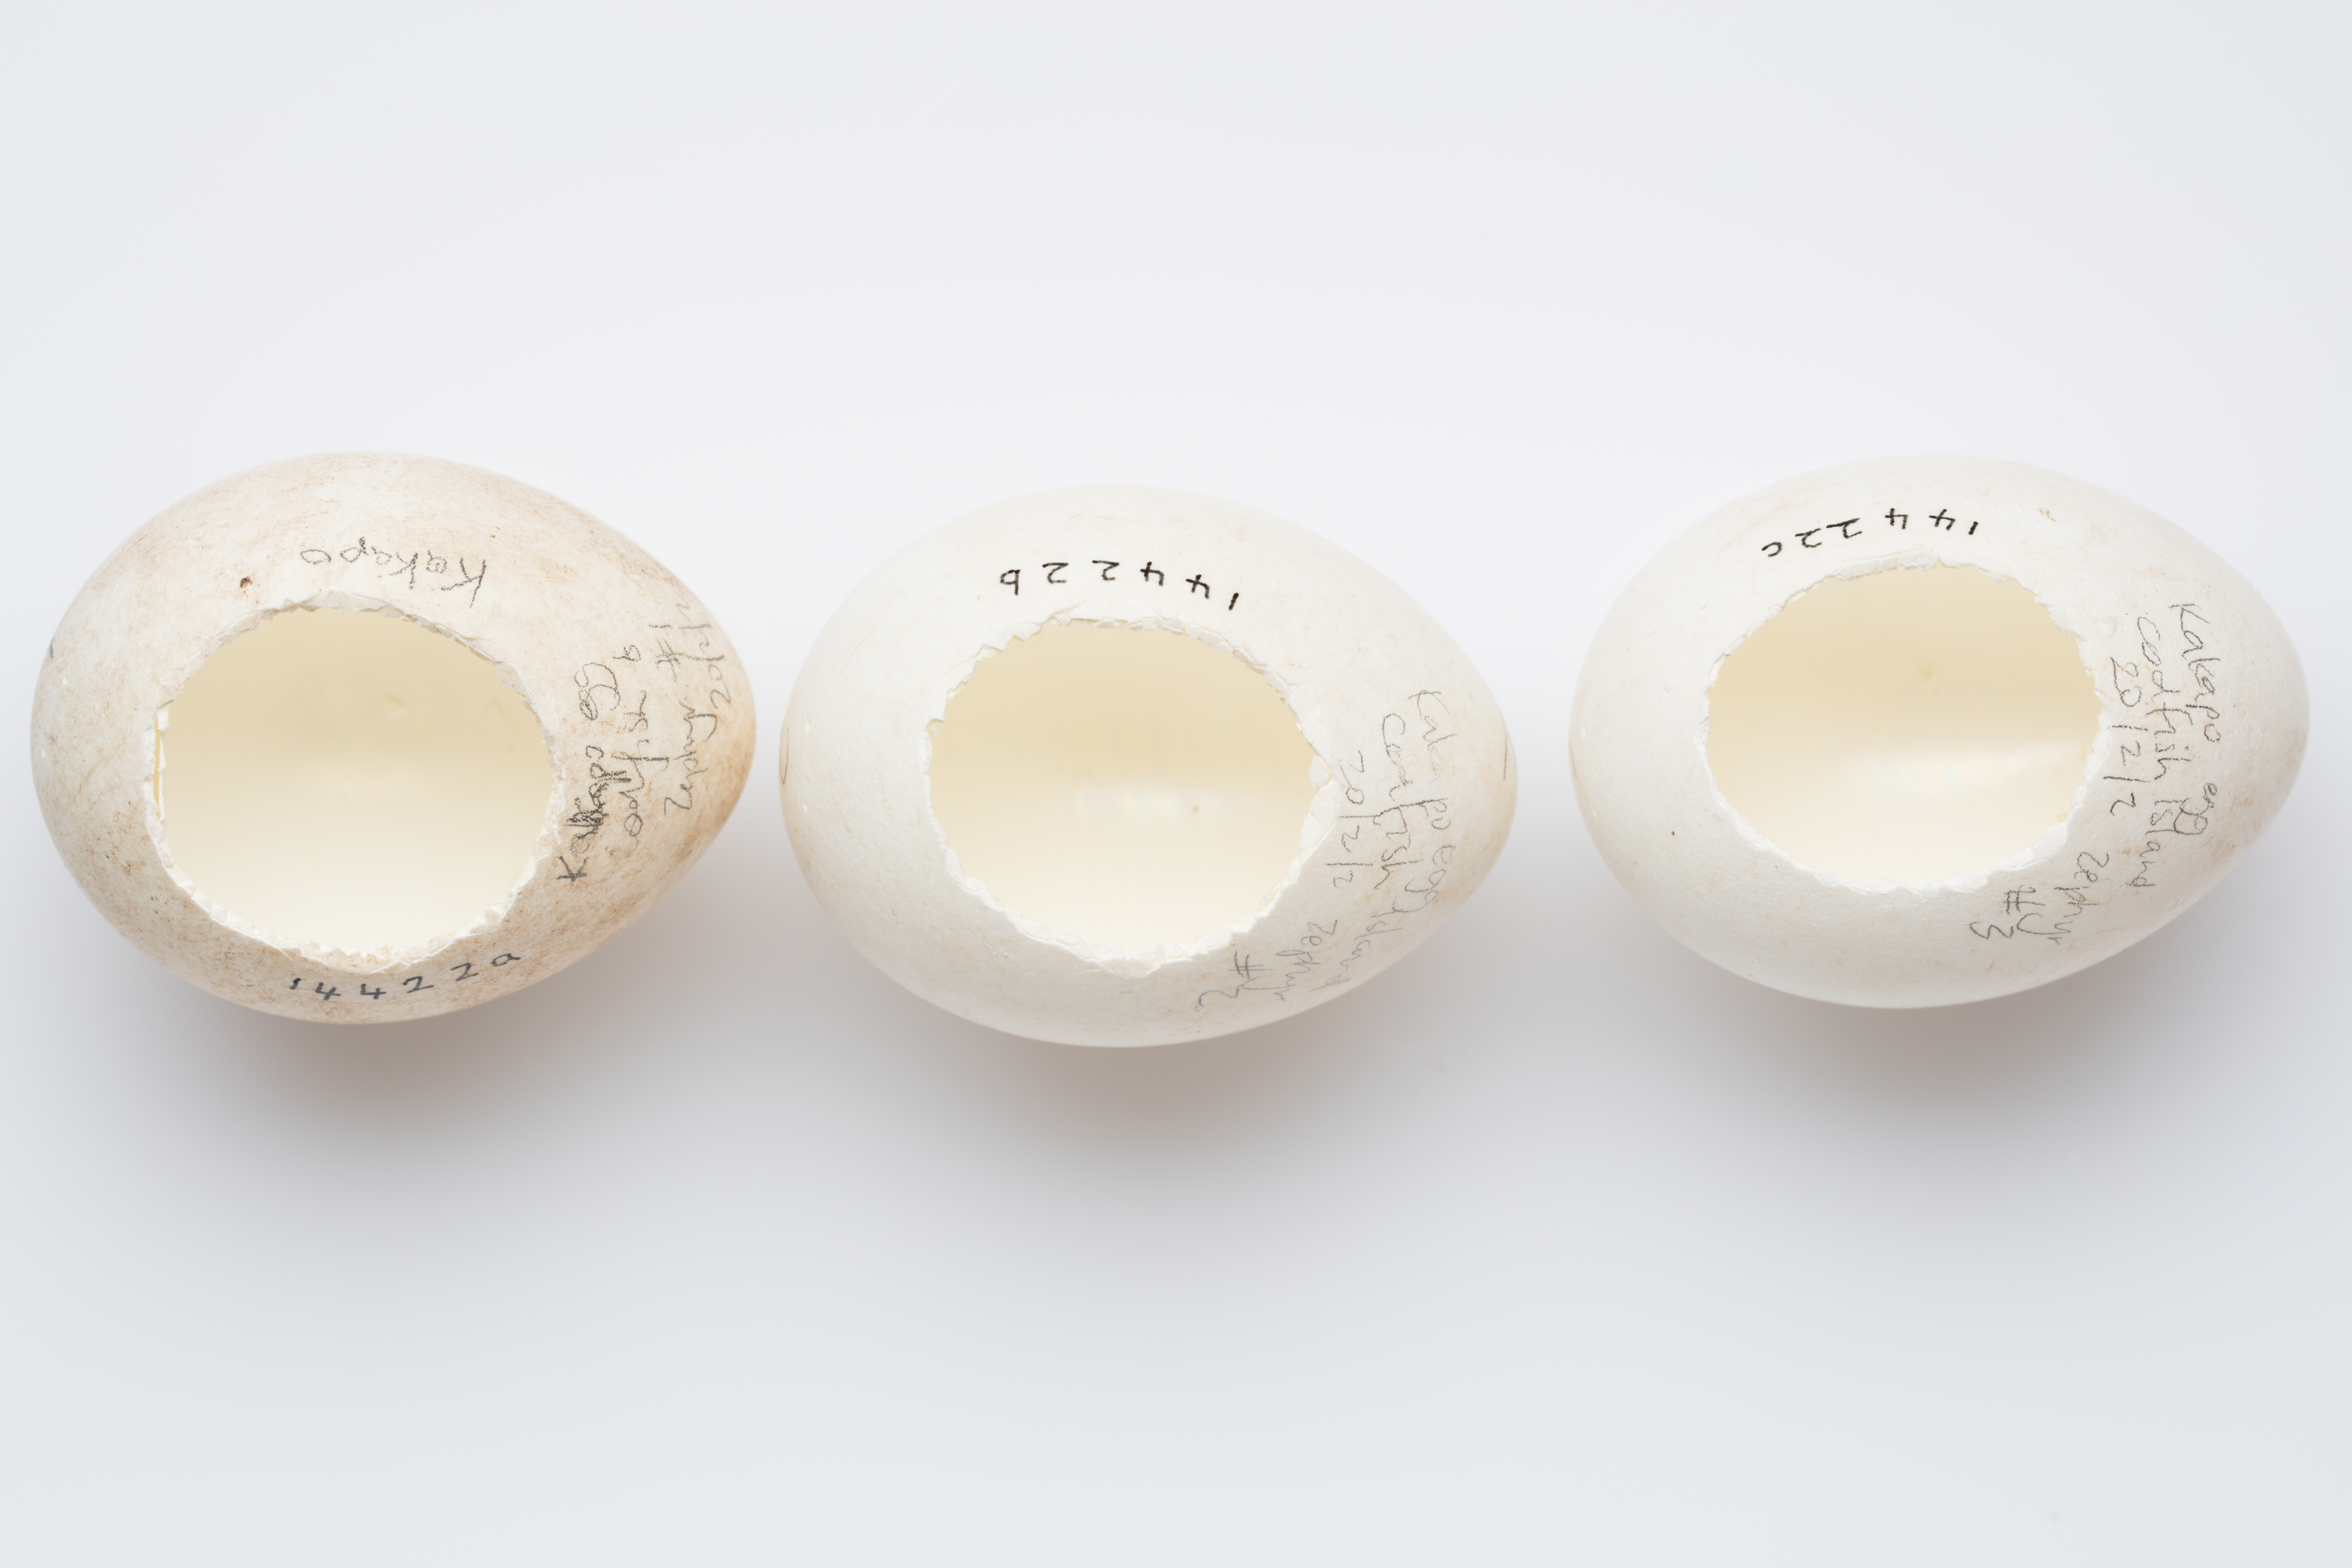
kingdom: Animalia
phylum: Chordata
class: Aves
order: Psittaciformes
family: Psittacidae
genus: Strigops
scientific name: Strigops habroptila
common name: Kakapo
